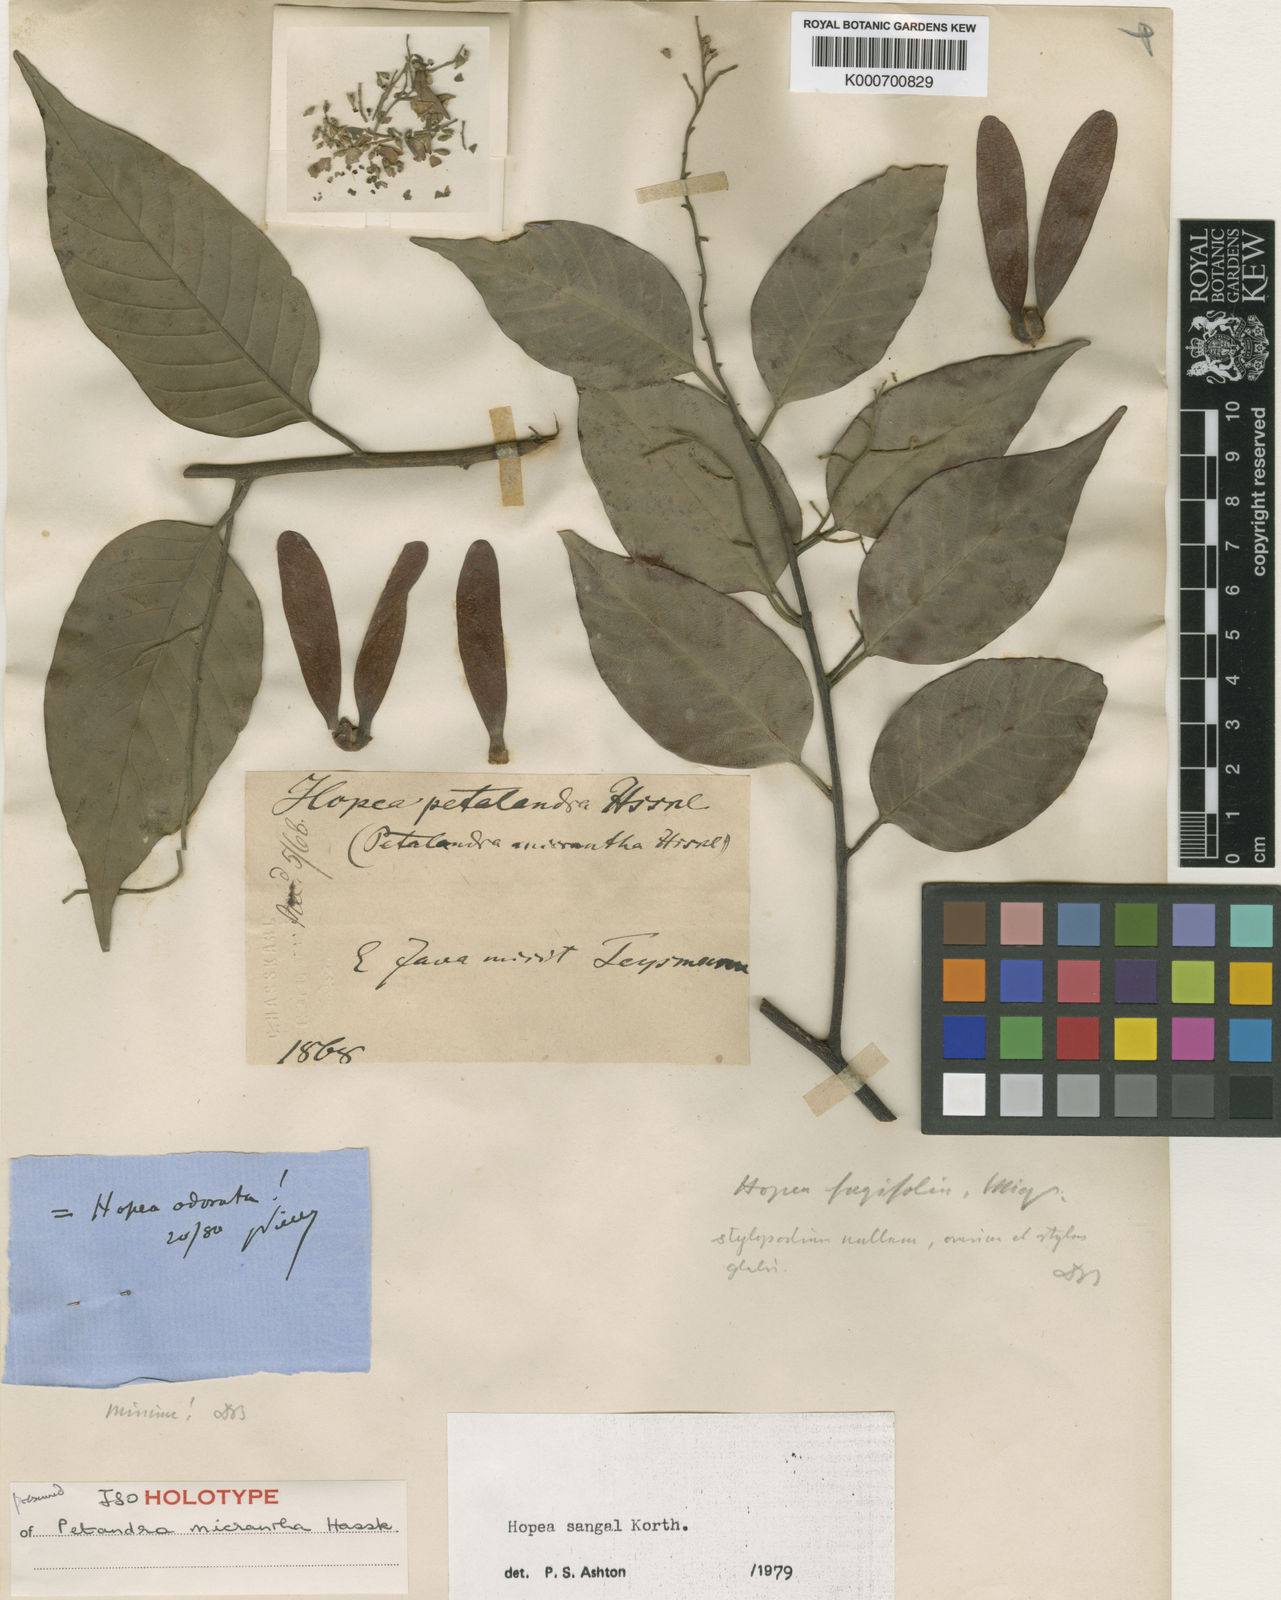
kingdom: Plantae
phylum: Tracheophyta
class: Magnoliopsida
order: Malvales
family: Dipterocarpaceae
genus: Hopea
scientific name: Hopea sangal
